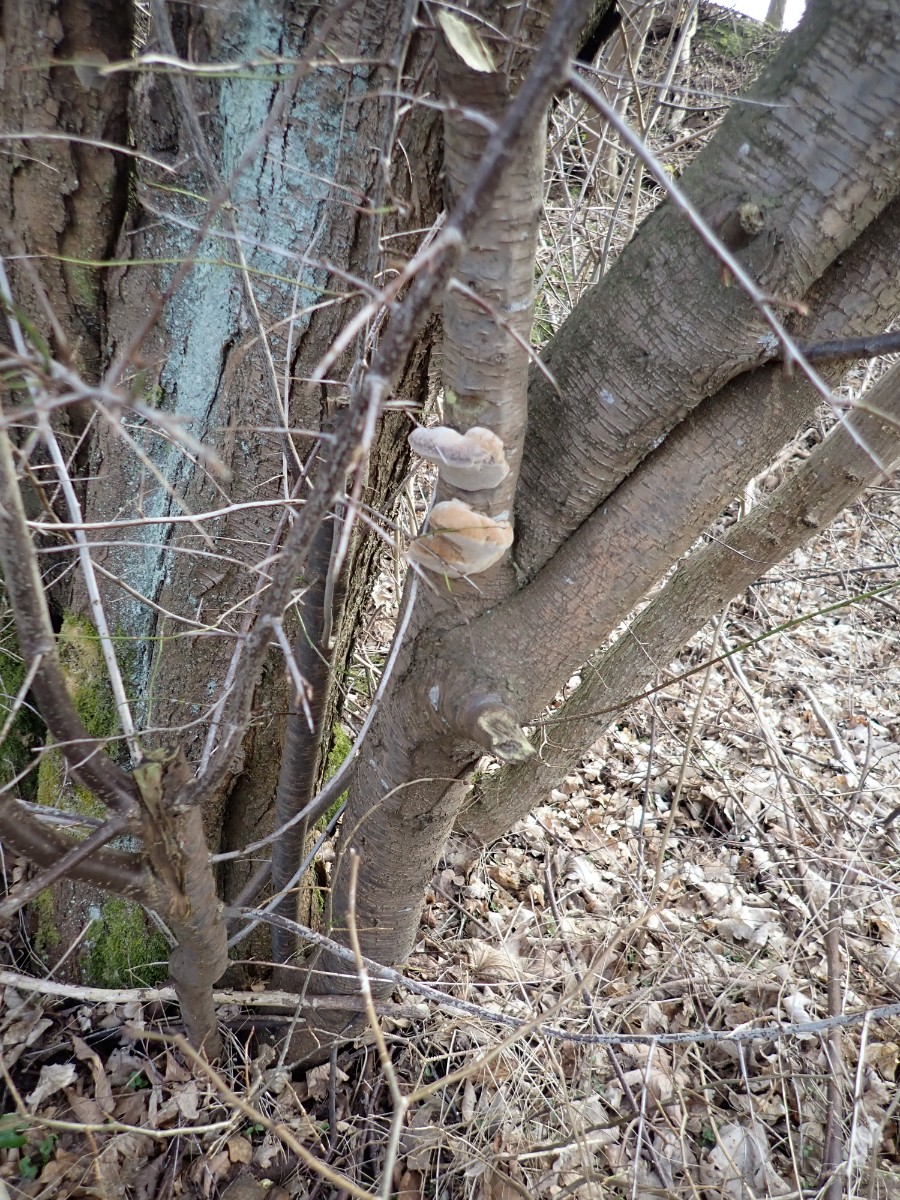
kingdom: Fungi
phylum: Basidiomycota
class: Agaricomycetes
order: Hymenochaetales
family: Hymenochaetaceae
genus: Phellinus
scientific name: Phellinus pomaceus
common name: blomme-ildporesvamp
